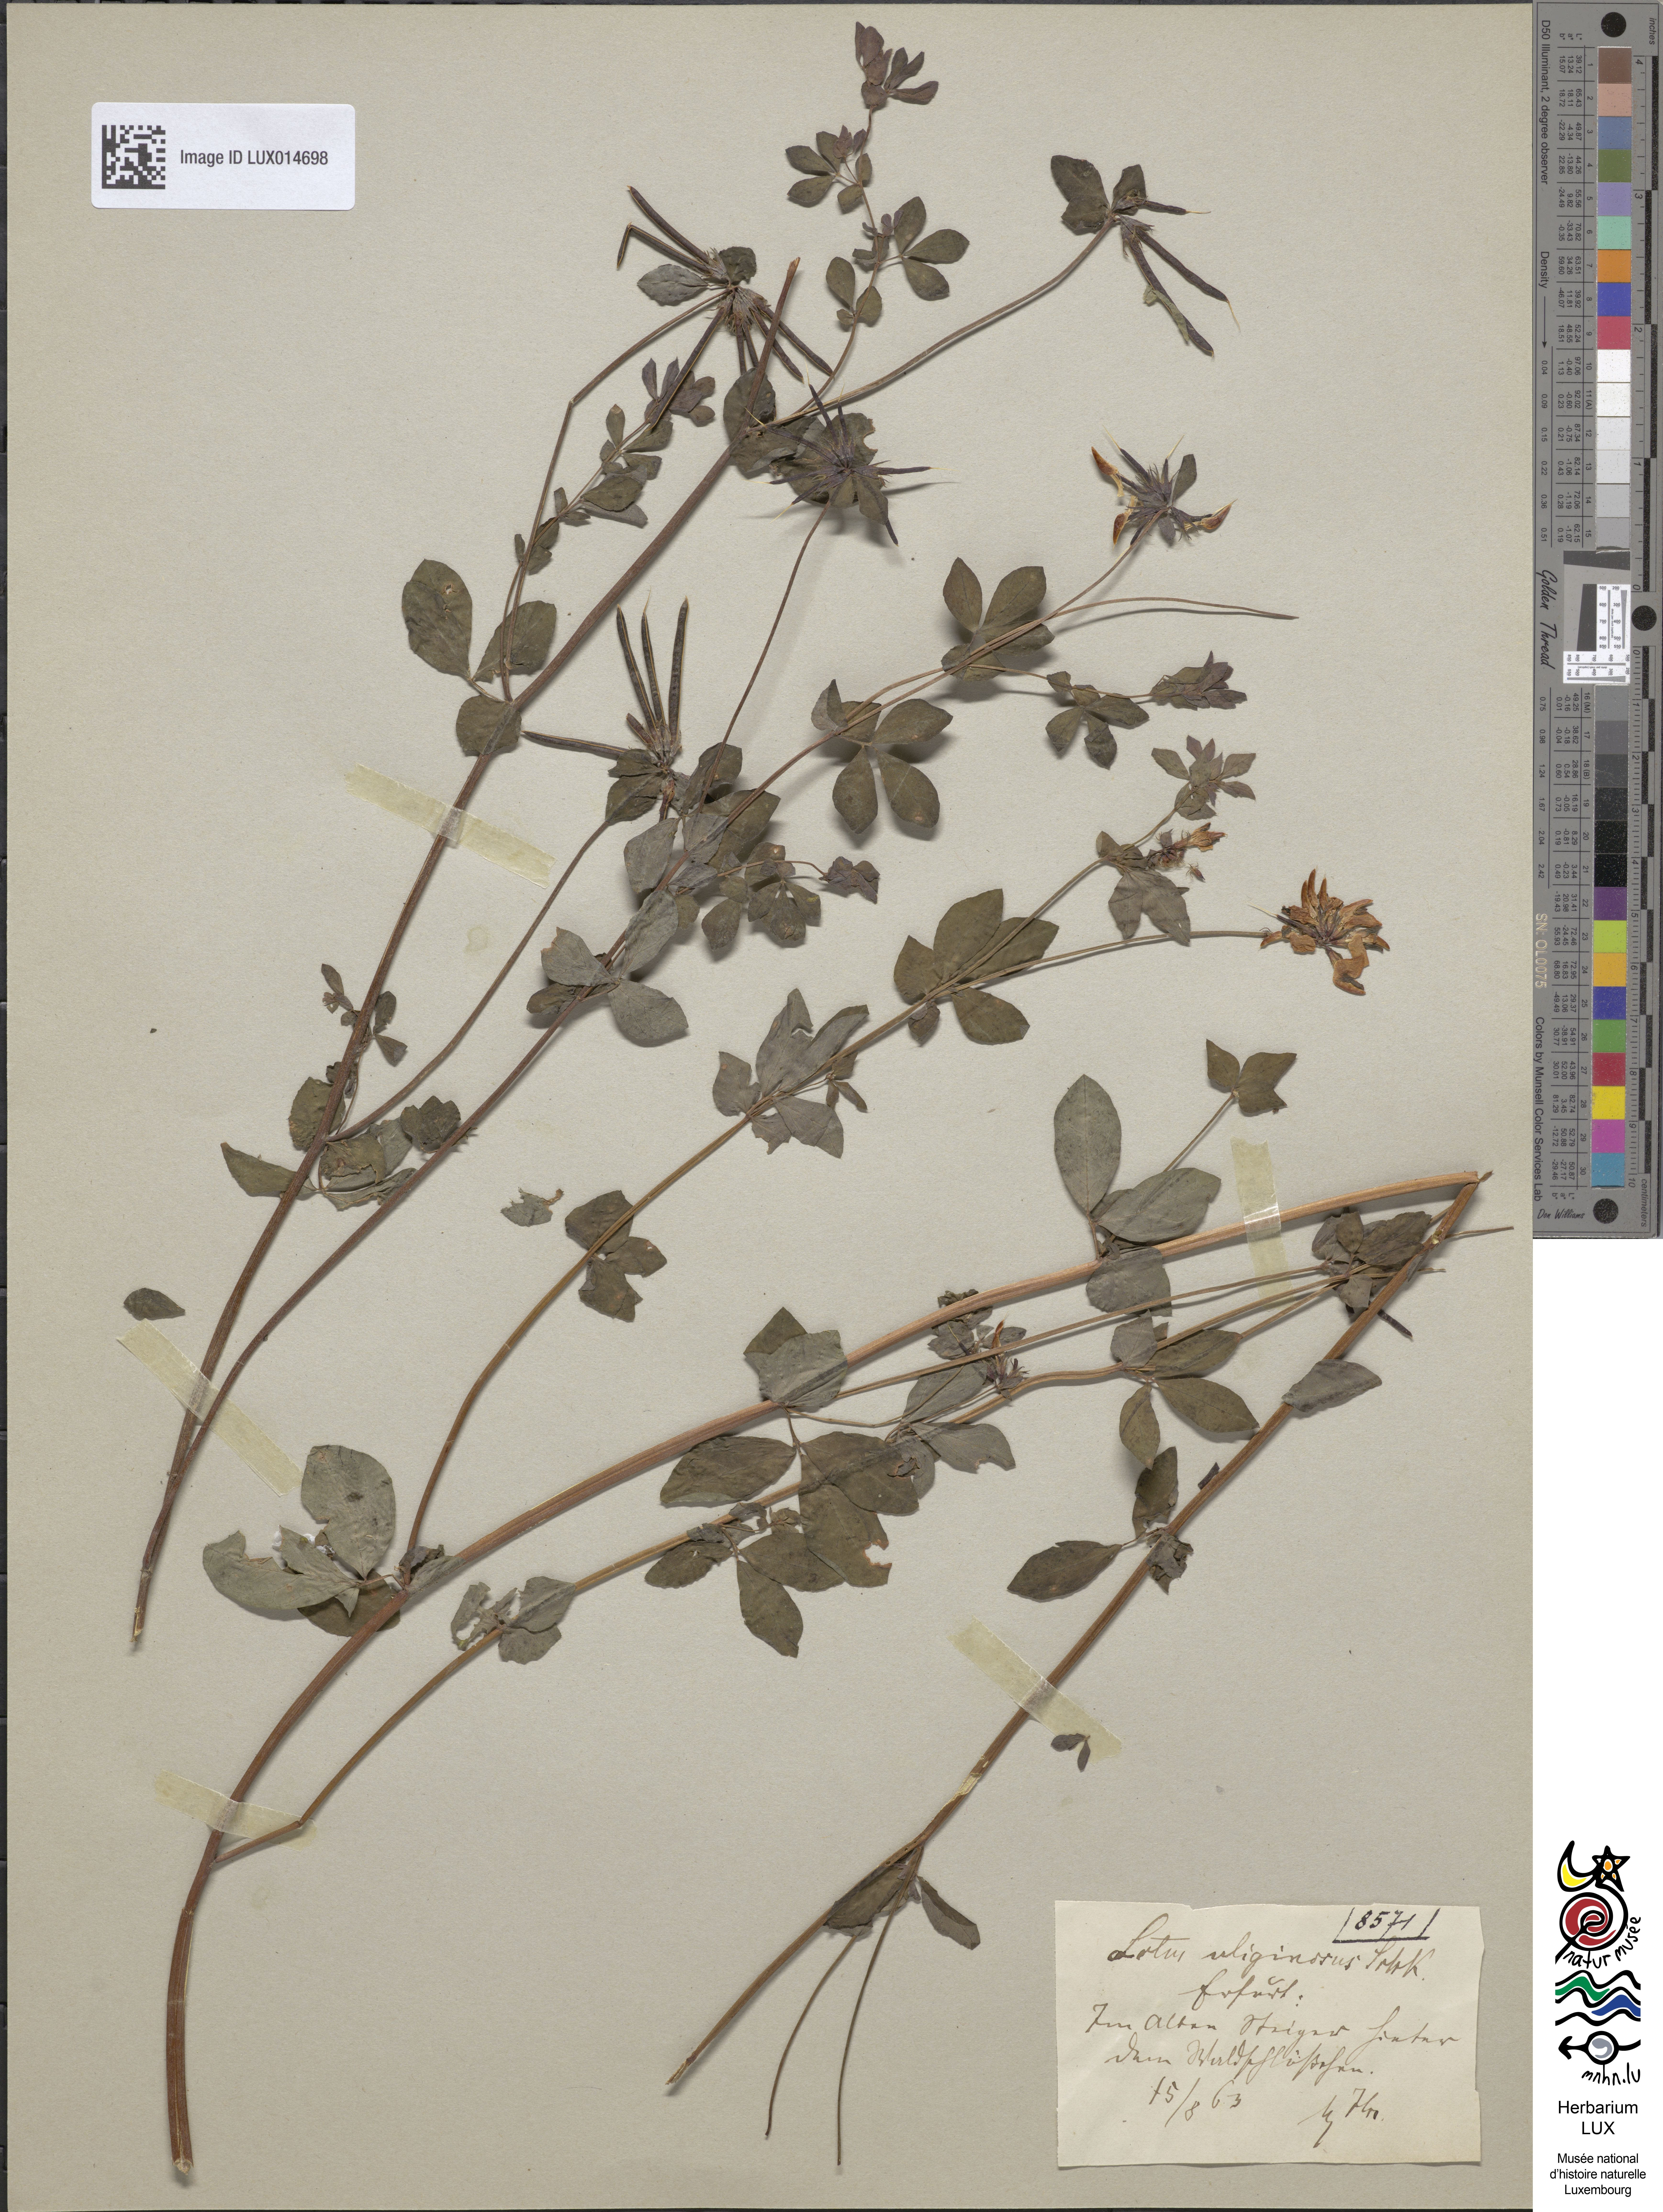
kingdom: Plantae
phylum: Tracheophyta
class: Magnoliopsida
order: Fabales
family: Fabaceae
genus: Lotus
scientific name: Lotus pedunculatus
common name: Greater birdsfoot-trefoil
